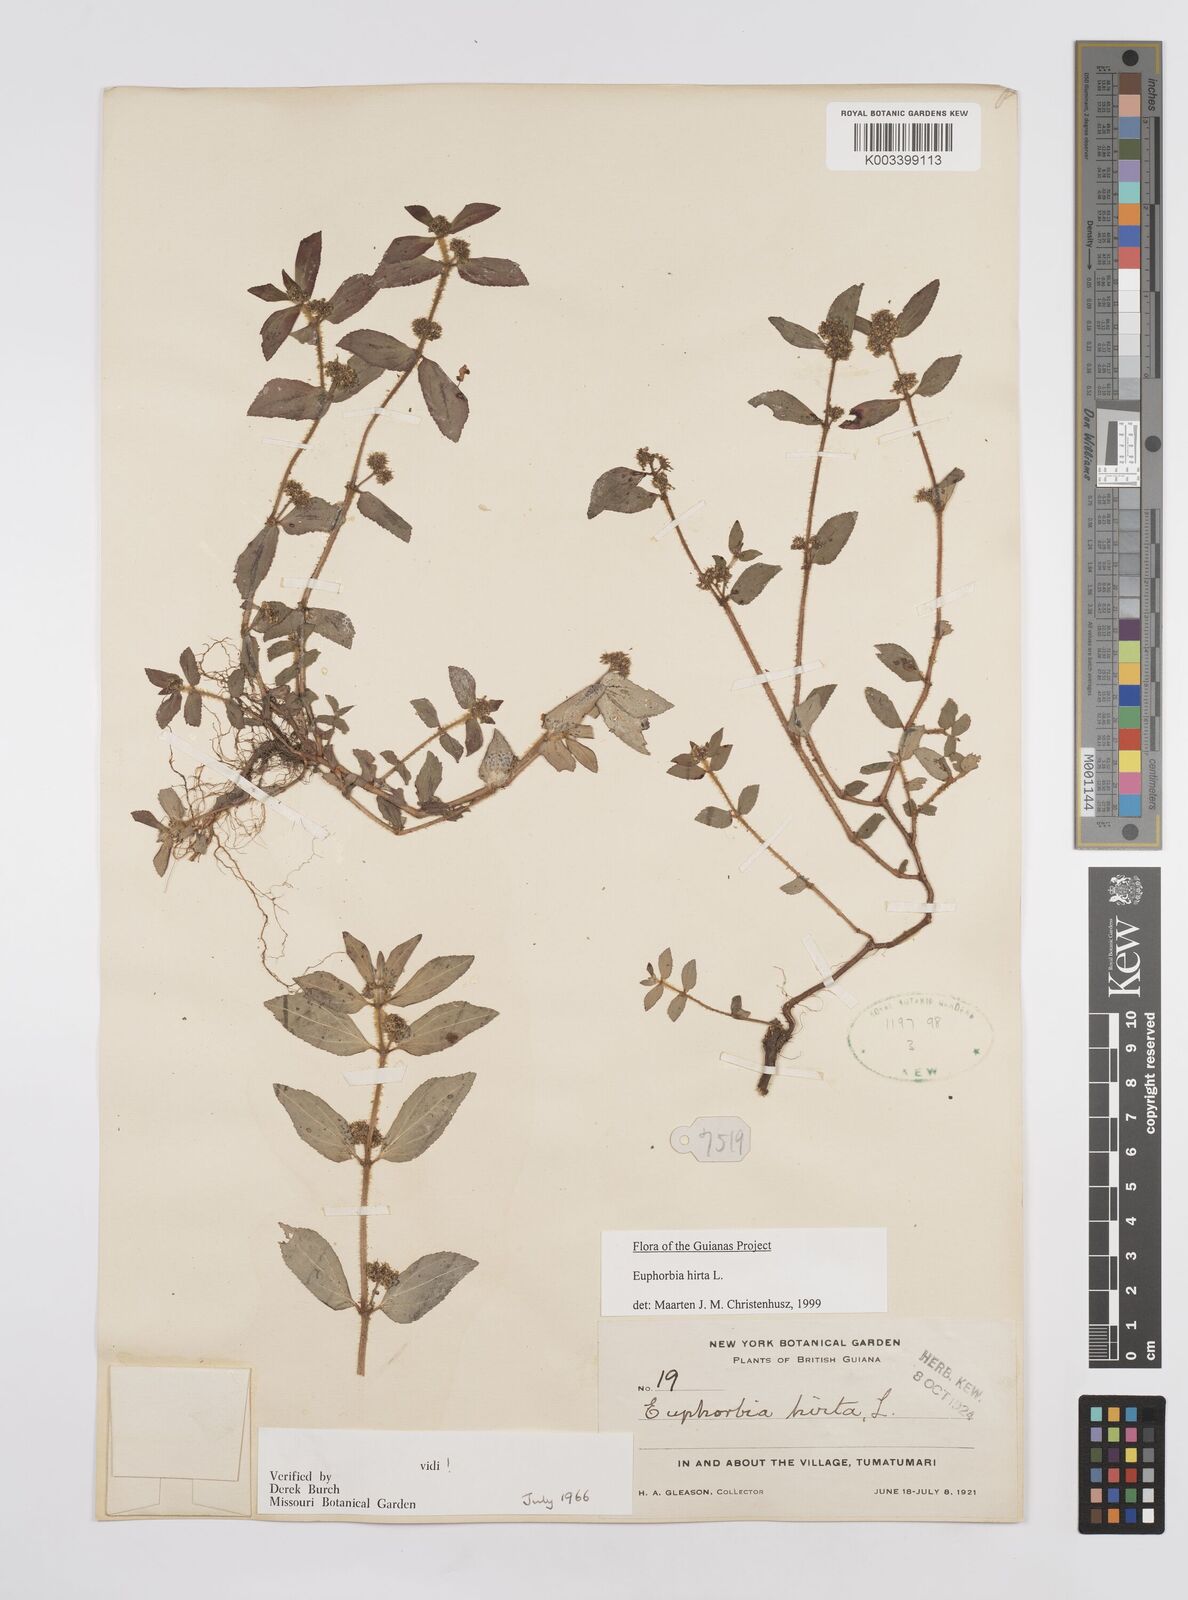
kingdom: Plantae
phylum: Tracheophyta
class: Magnoliopsida
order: Malpighiales
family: Euphorbiaceae
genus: Euphorbia
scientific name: Euphorbia hirta
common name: Pillpod sandmat
